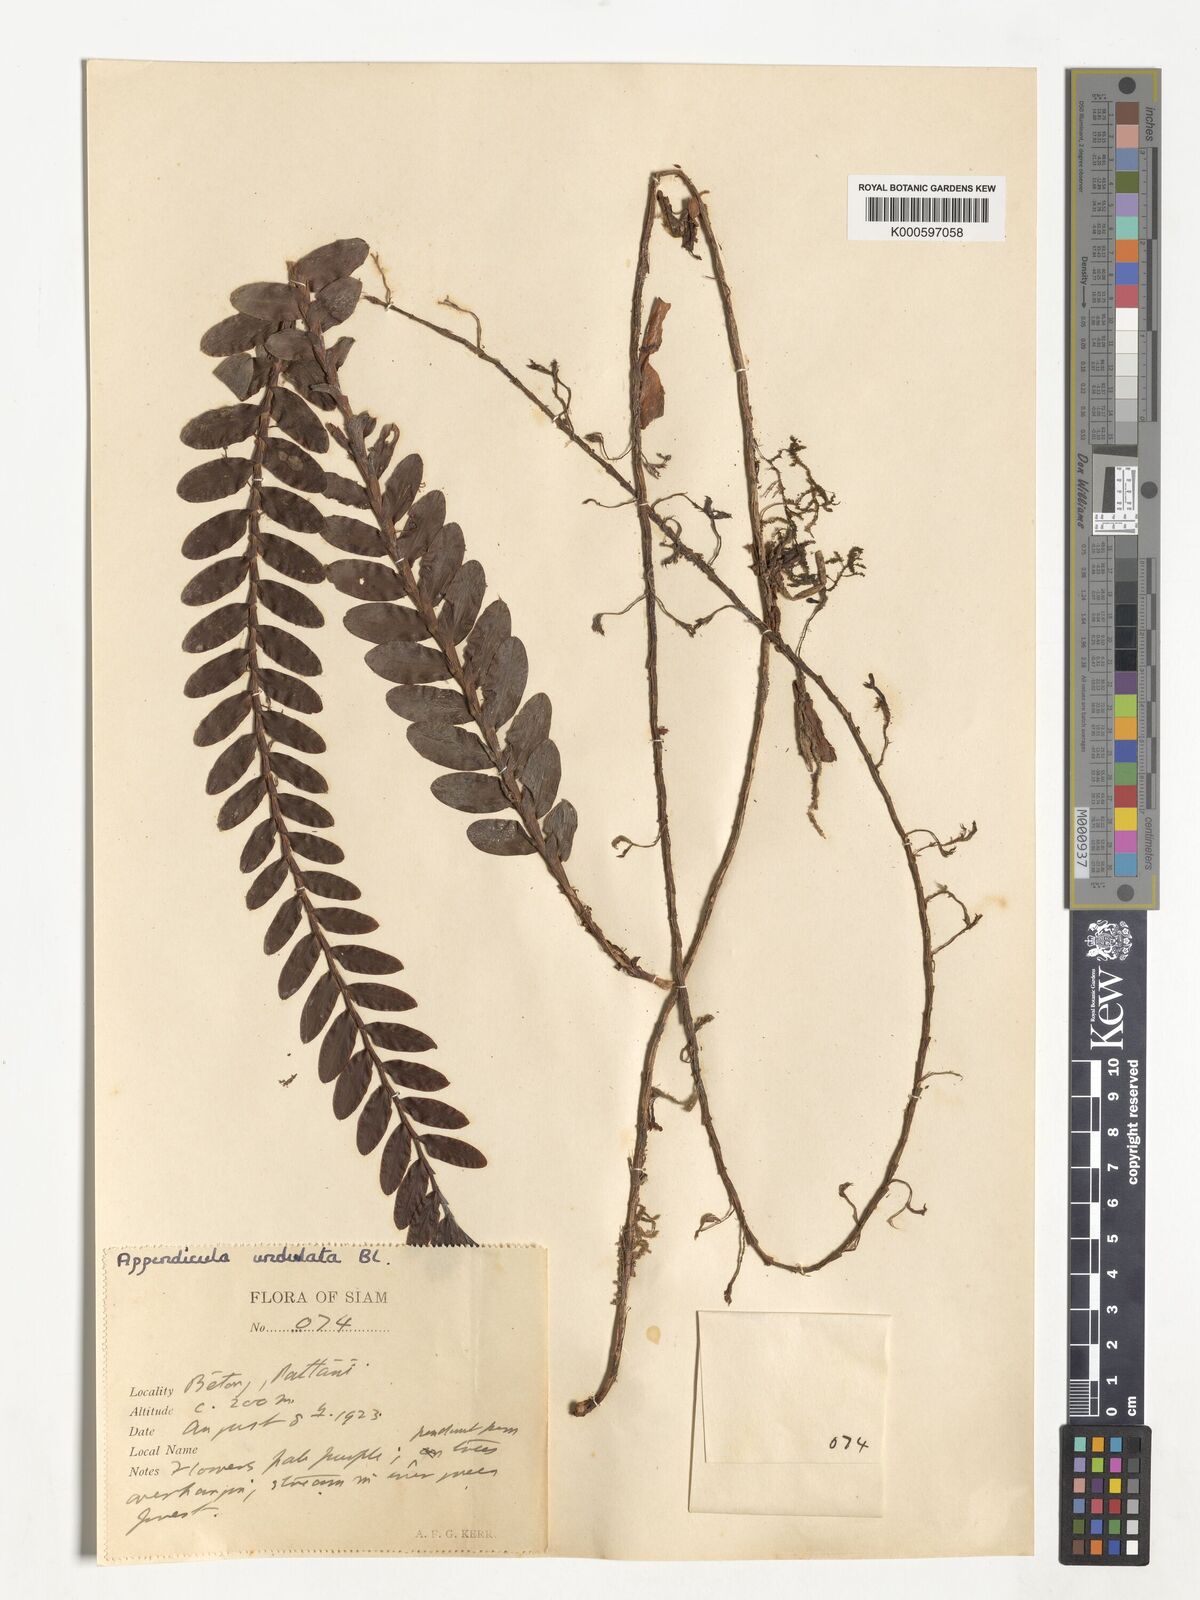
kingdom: Plantae
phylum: Tracheophyta
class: Liliopsida
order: Asparagales
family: Orchidaceae
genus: Appendicula
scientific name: Appendicula undulata
